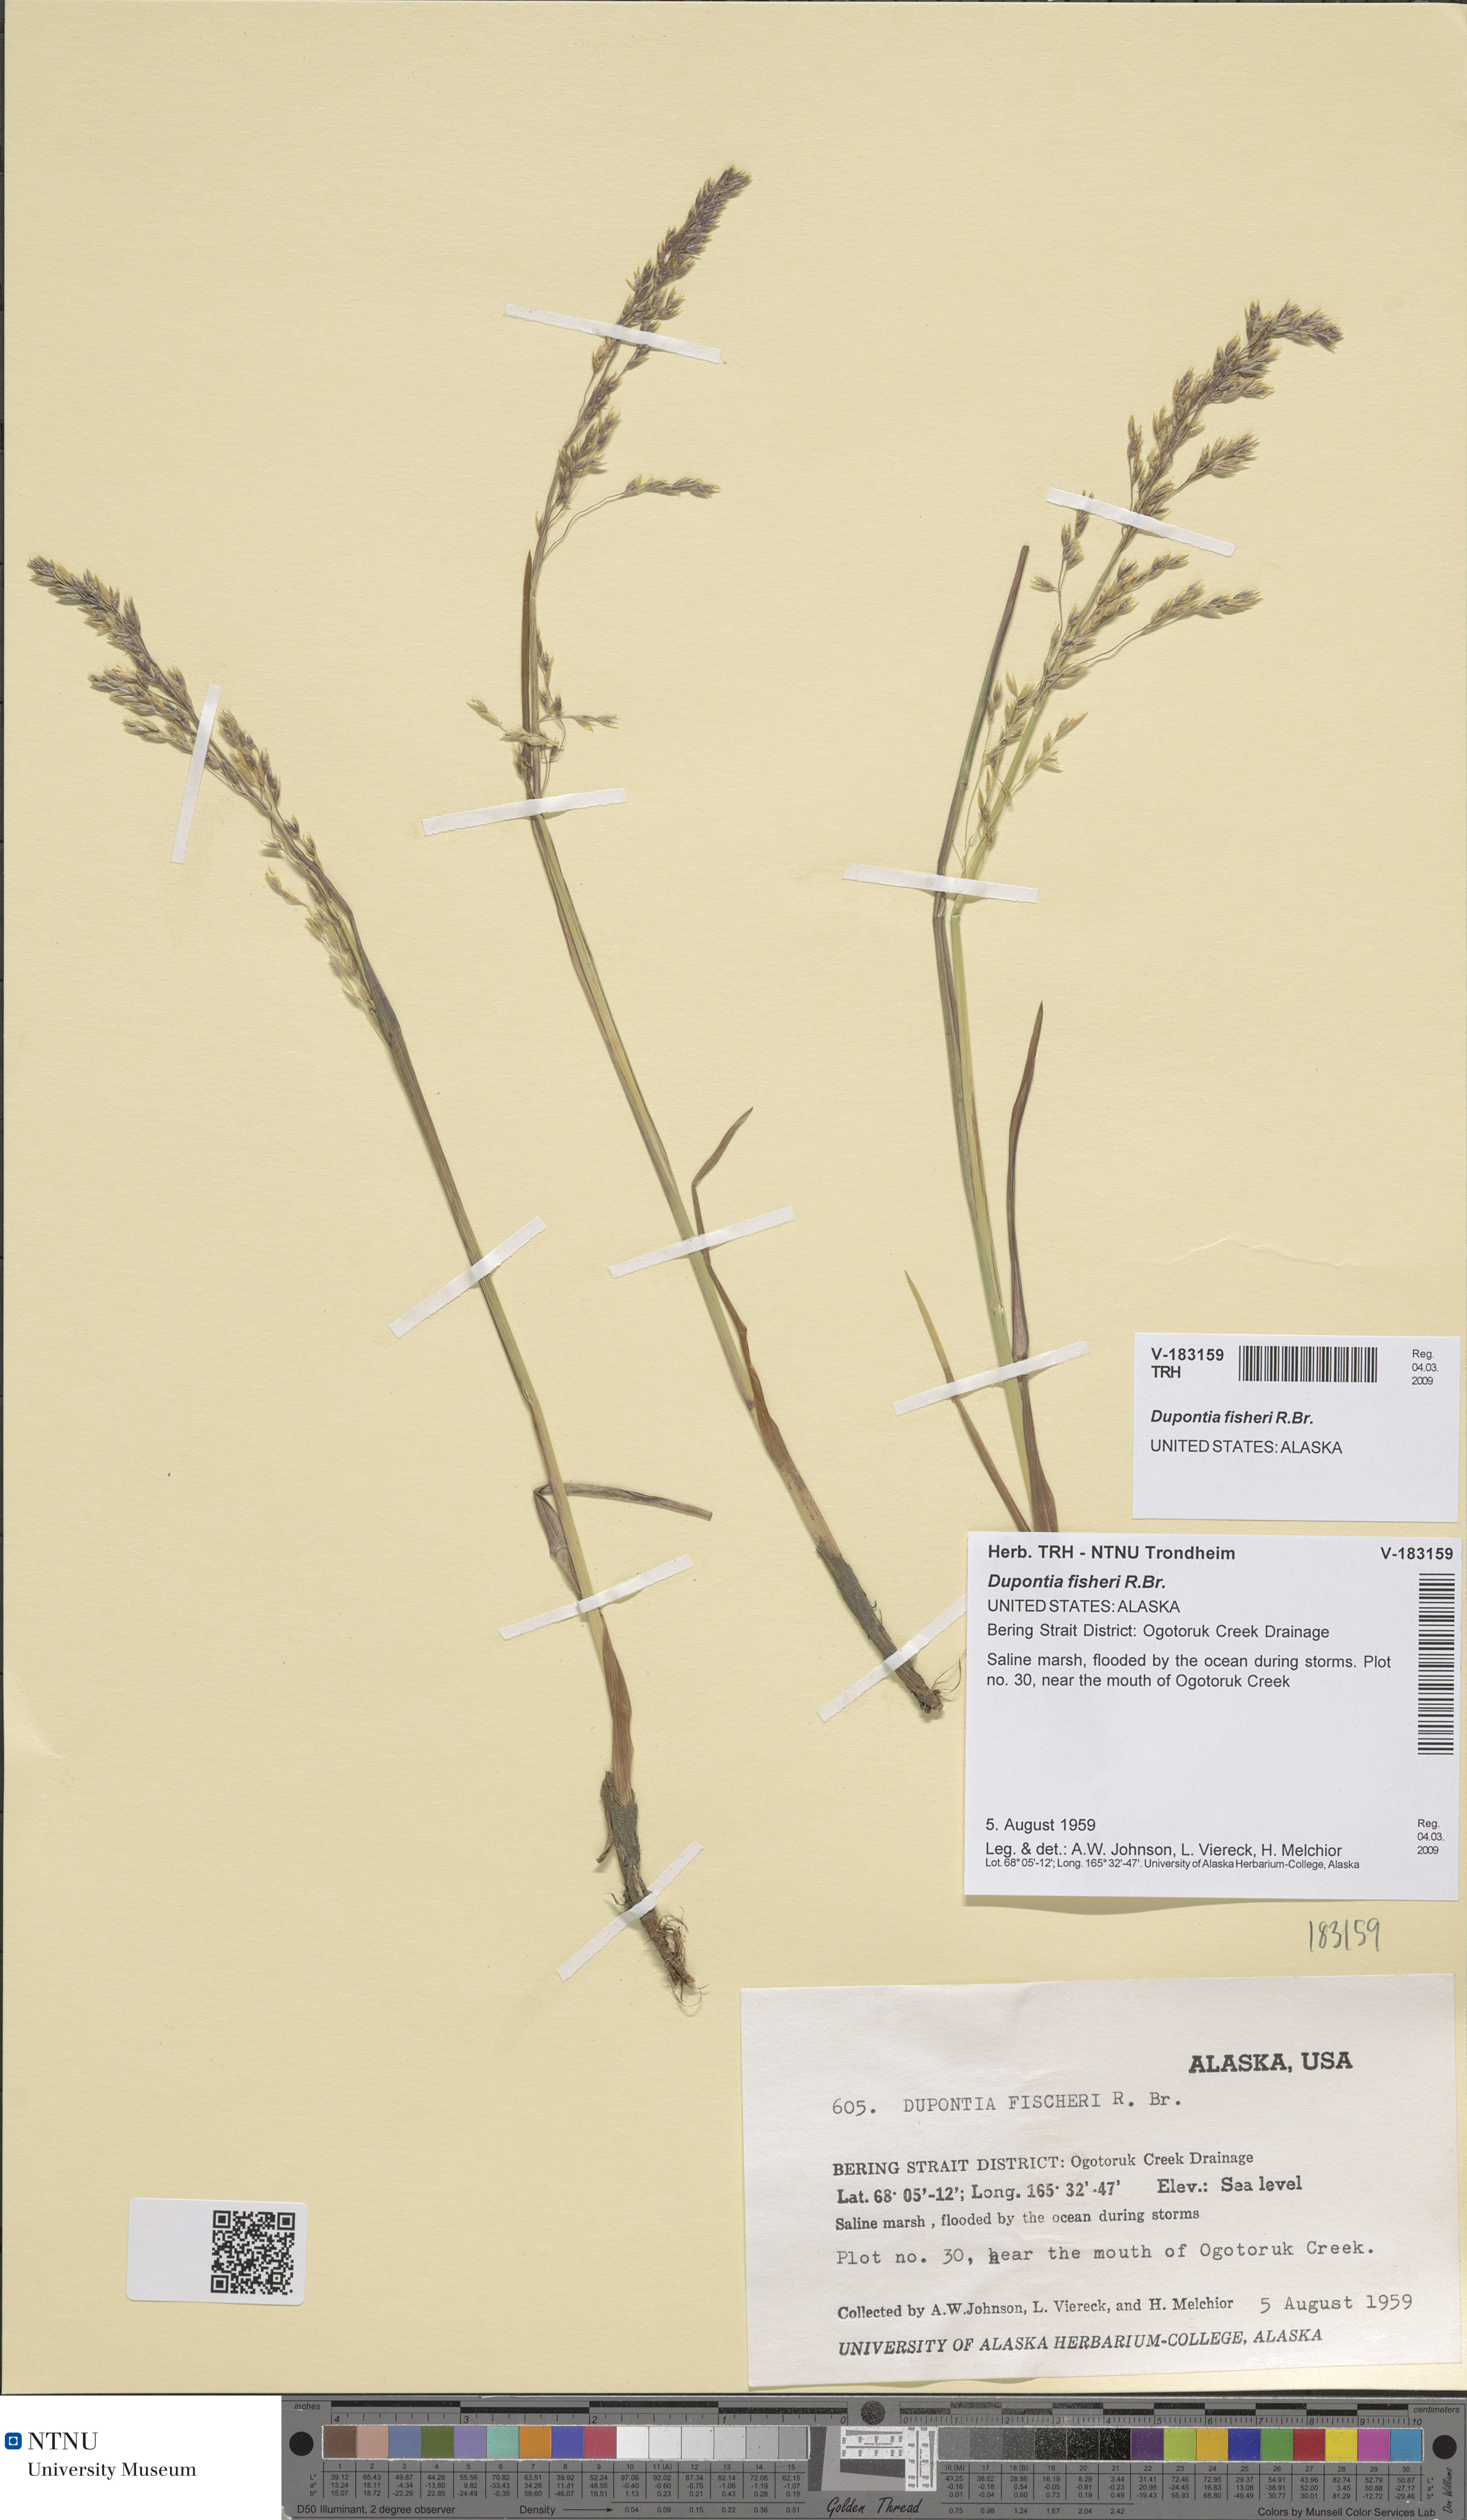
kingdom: Plantae
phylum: Tracheophyta
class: Liliopsida
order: Poales
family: Poaceae
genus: Dupontia
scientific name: Dupontia fisheri
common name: Tundra grass
